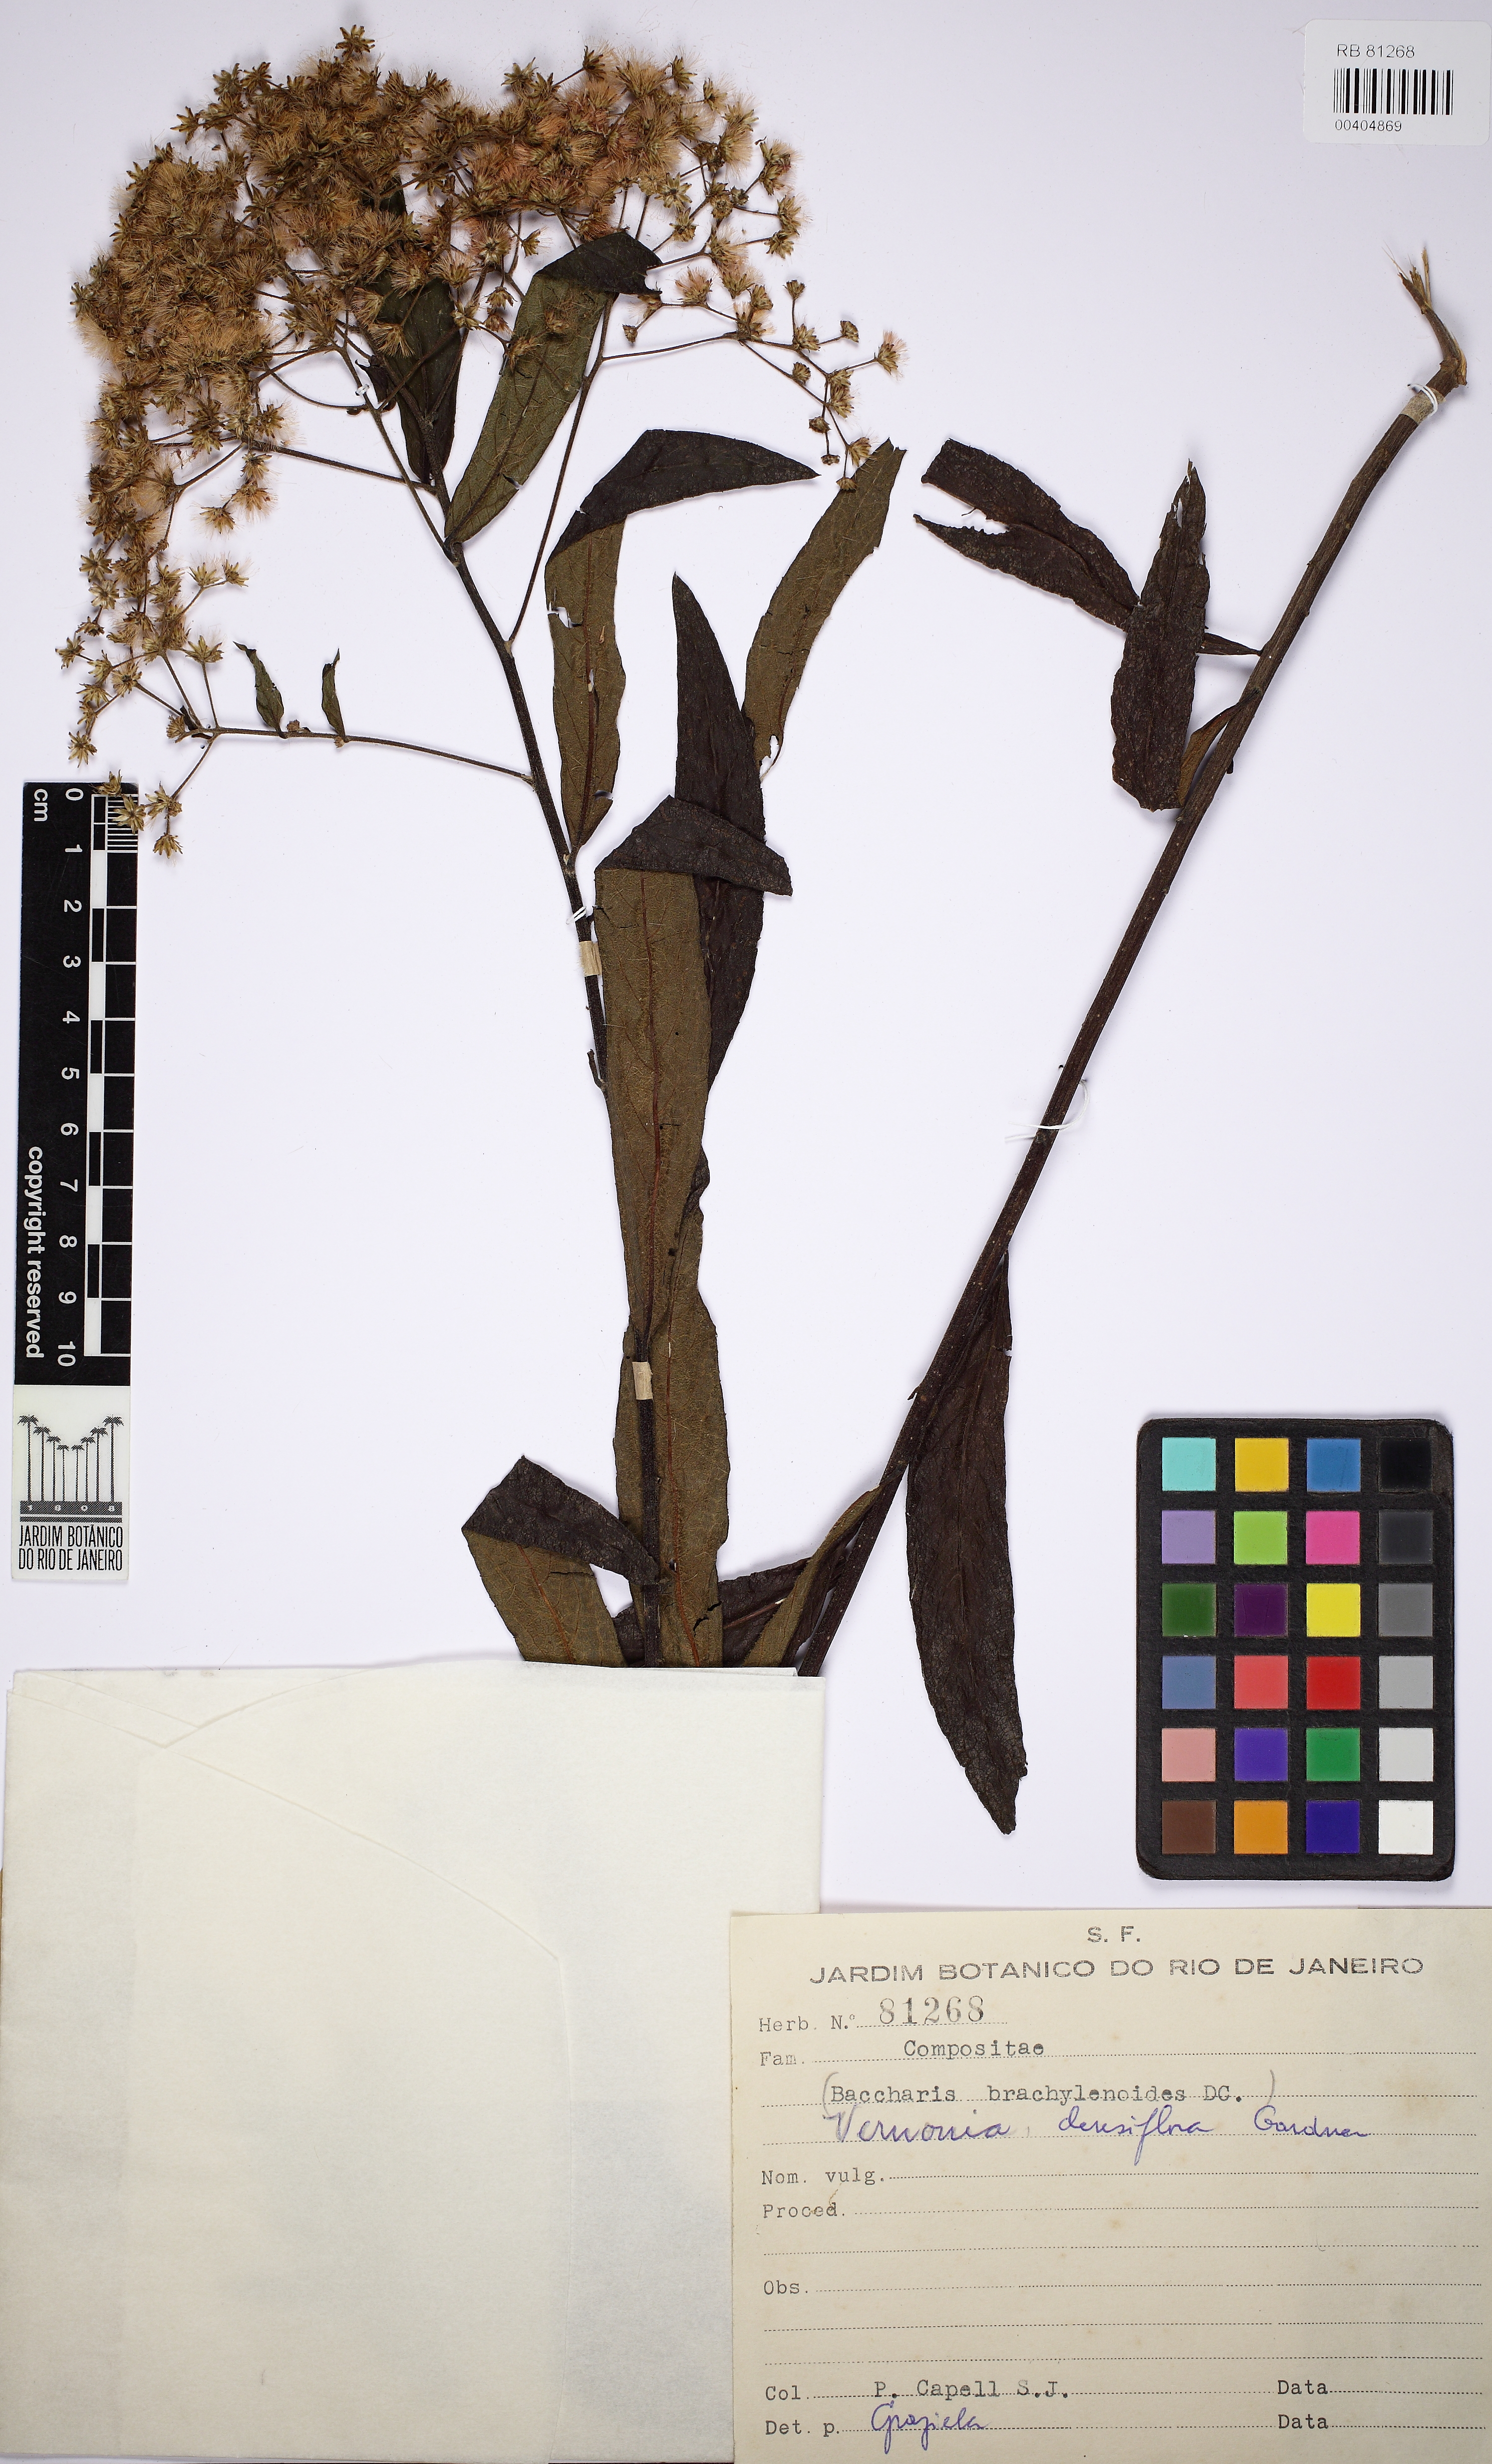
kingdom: Plantae
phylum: Tracheophyta
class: Magnoliopsida
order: Asterales
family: Asteraceae
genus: Vernonanthura
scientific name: Vernonanthura densiflora
